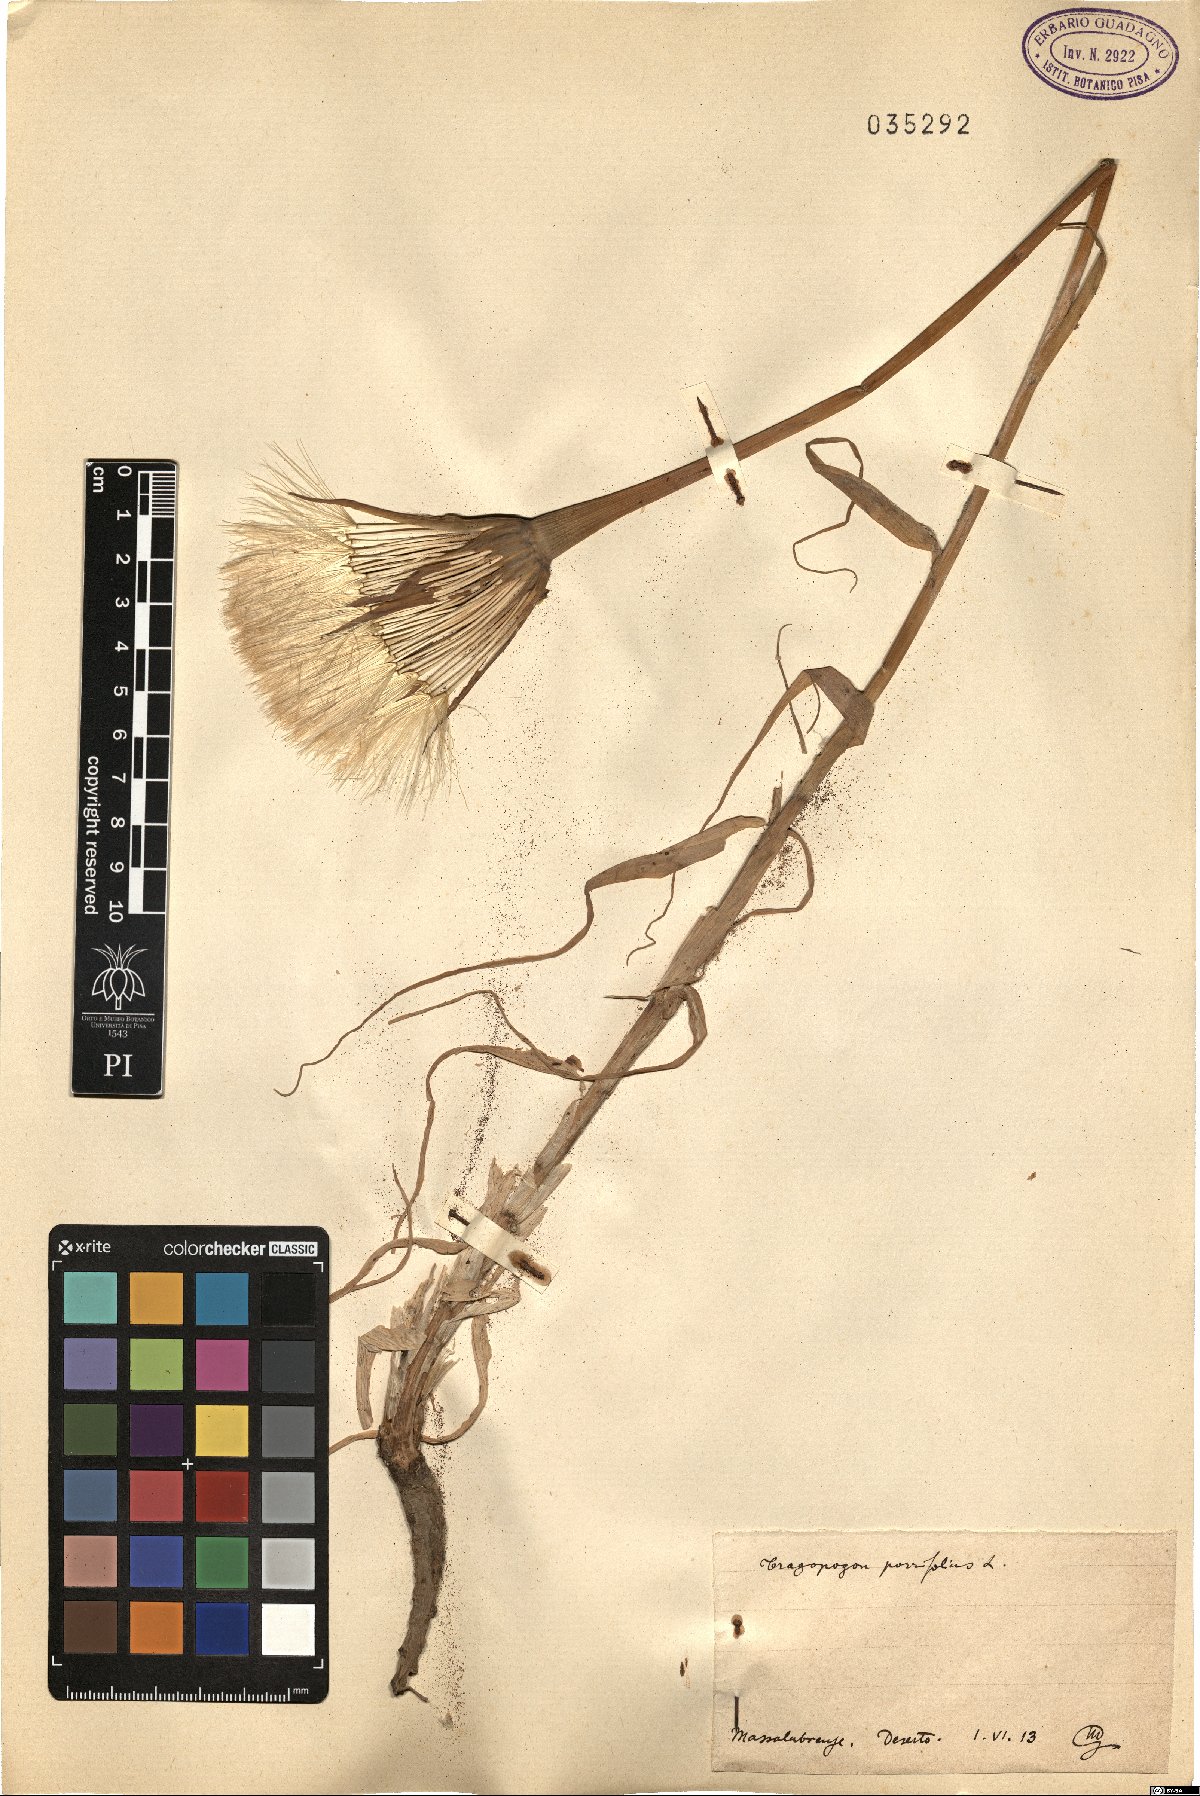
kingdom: Plantae
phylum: Tracheophyta
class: Magnoliopsida
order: Asterales
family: Asteraceae
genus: Tragopogon
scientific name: Tragopogon porrifolius
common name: Salsify
